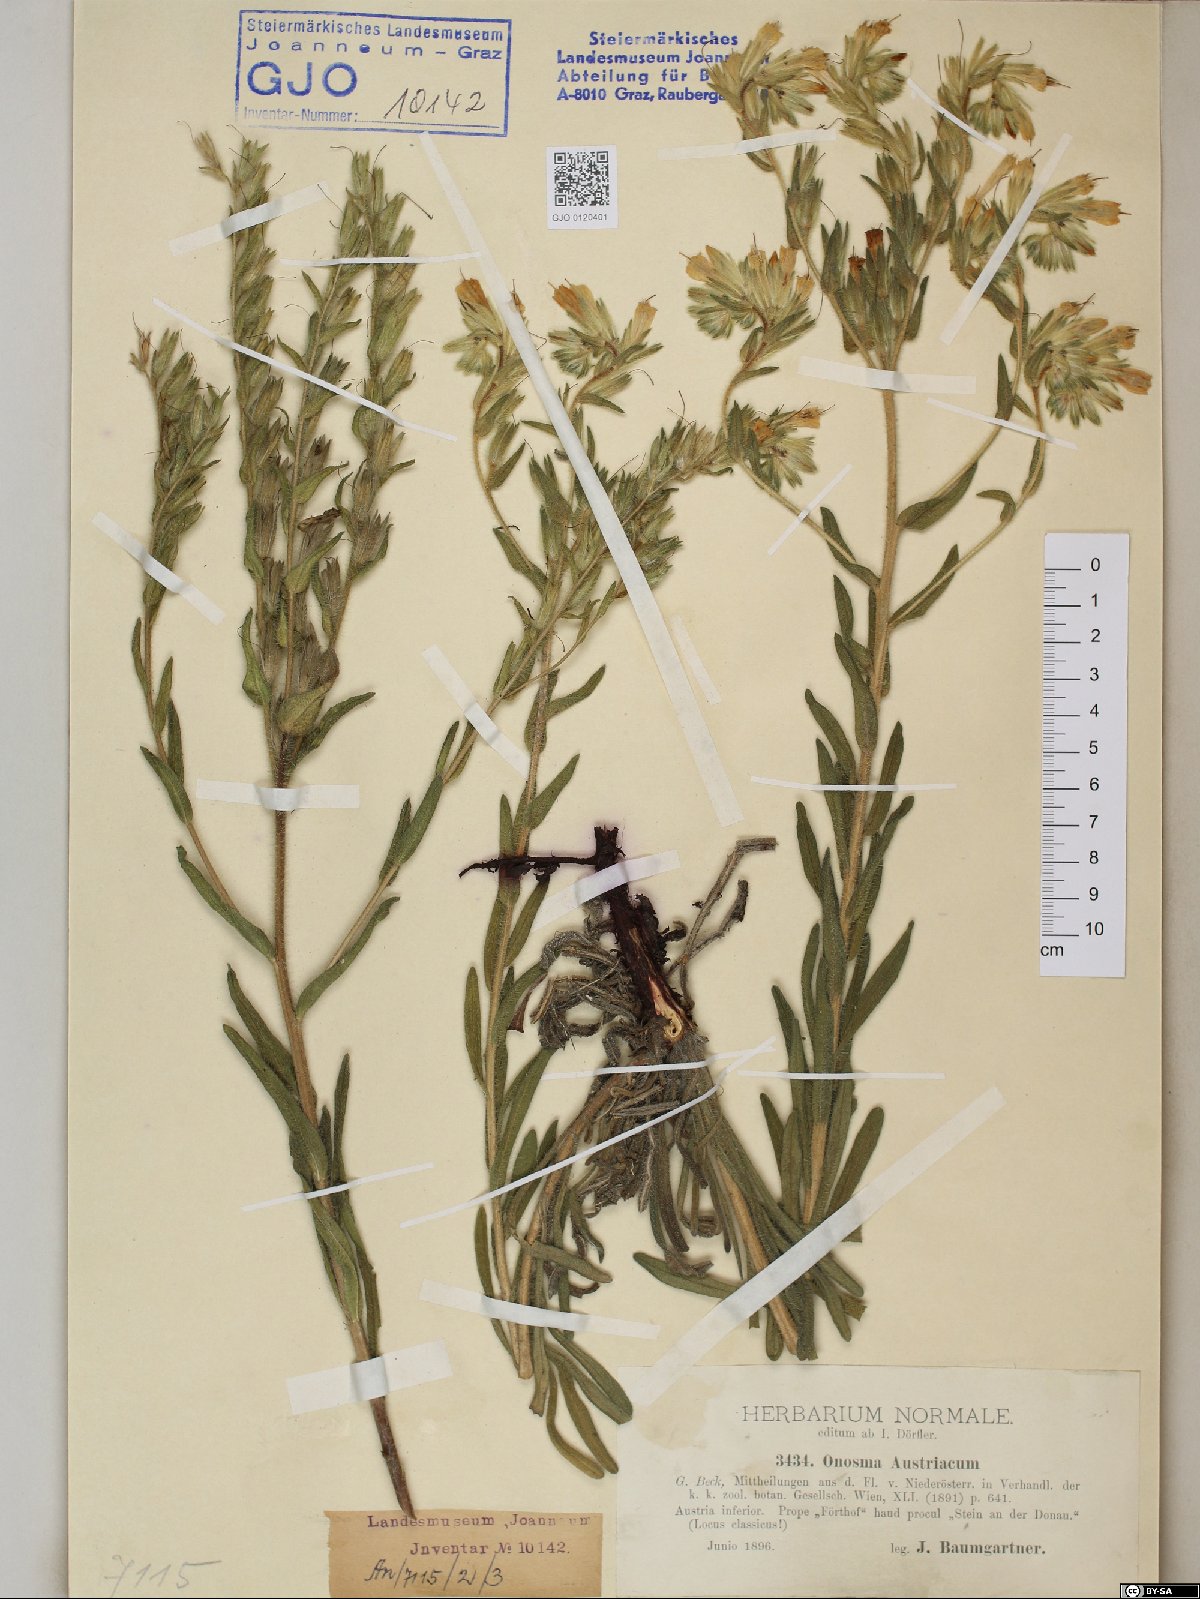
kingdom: Plantae
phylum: Tracheophyta
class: Magnoliopsida
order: Boraginales
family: Boraginaceae
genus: Onosma
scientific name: Onosma arenaria
